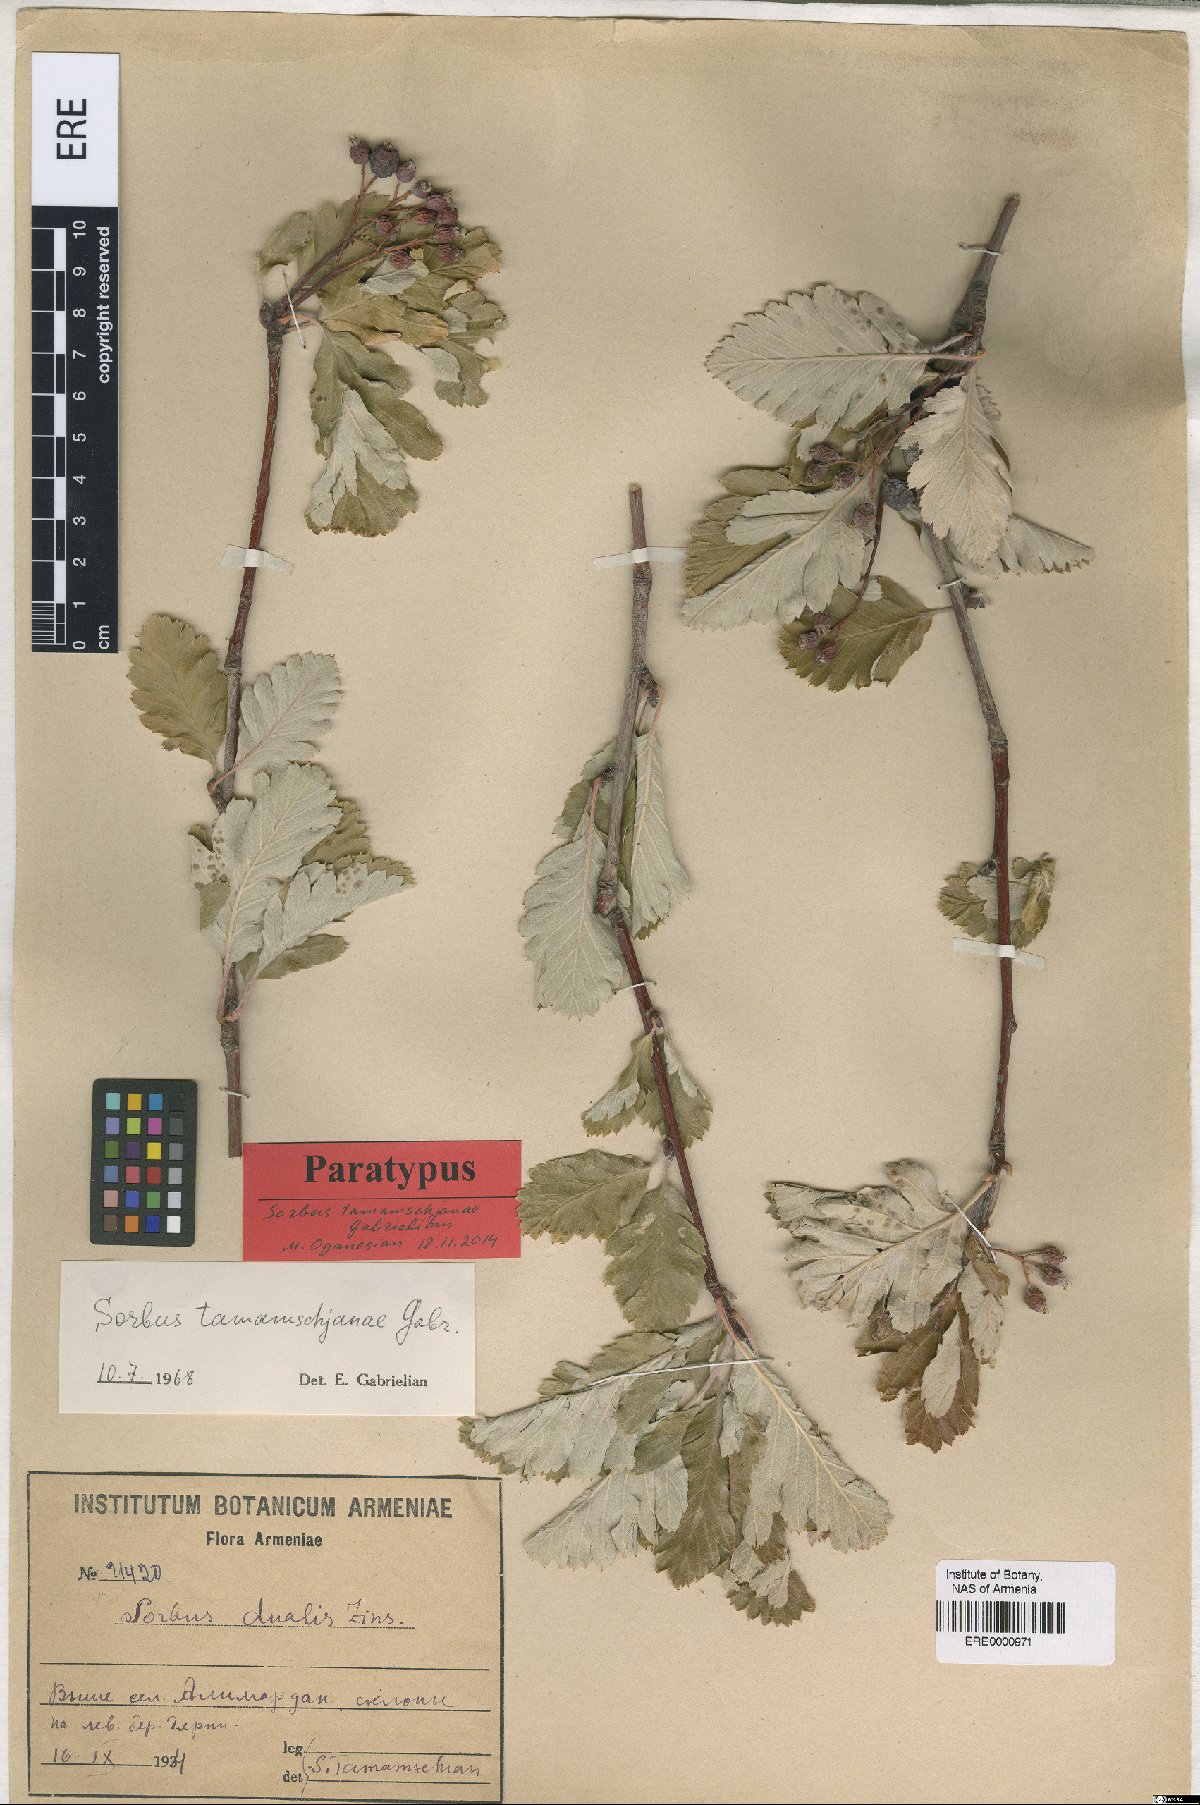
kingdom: Plantae
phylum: Tracheophyta
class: Magnoliopsida
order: Rosales
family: Rosaceae
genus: Hedlundia
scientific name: Hedlundia tamamschjanae
